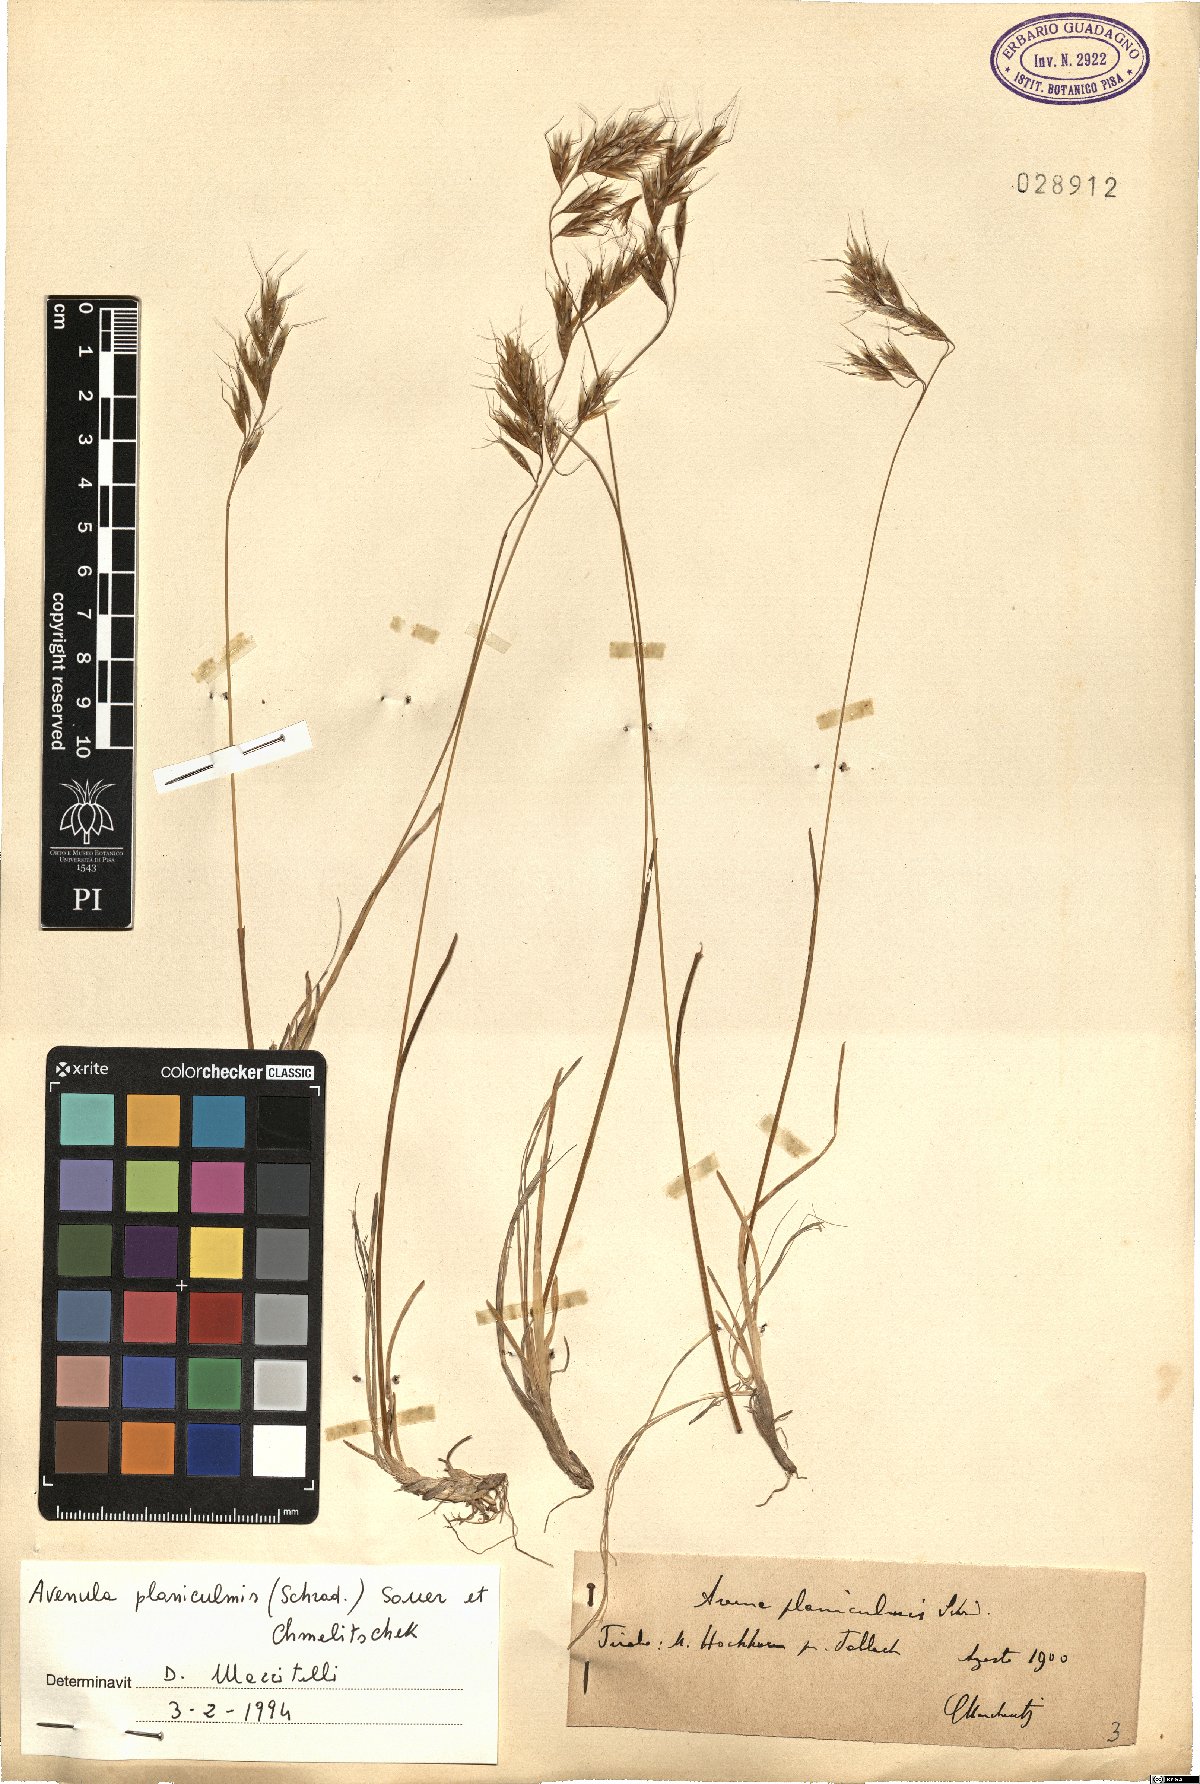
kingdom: Plantae
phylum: Tracheophyta
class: Liliopsida
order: Poales
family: Poaceae
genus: Helictochloa
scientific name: Helictochloa praeusta
